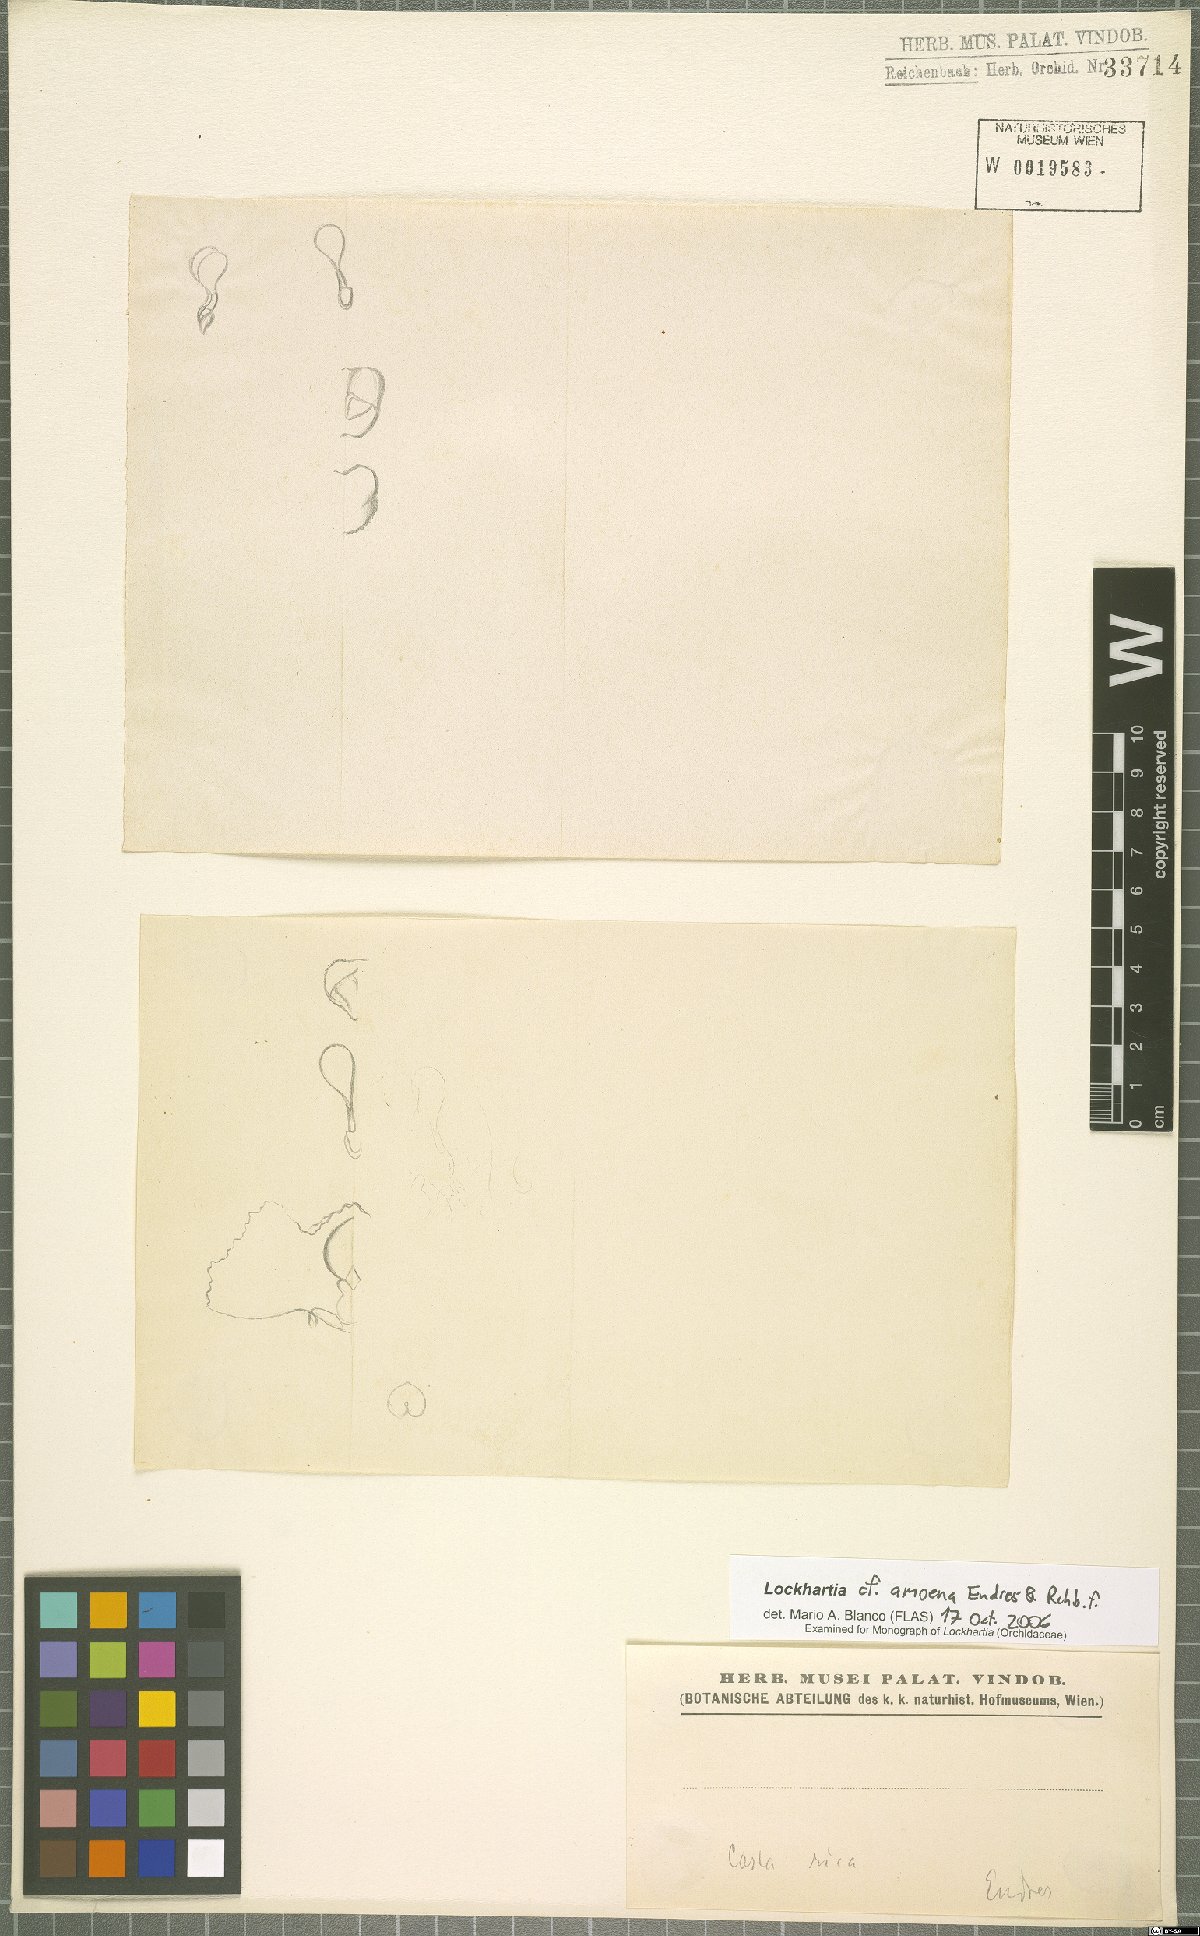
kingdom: Plantae
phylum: Tracheophyta
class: Liliopsida
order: Asparagales
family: Orchidaceae
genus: Lockhartia
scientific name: Lockhartia amoena
